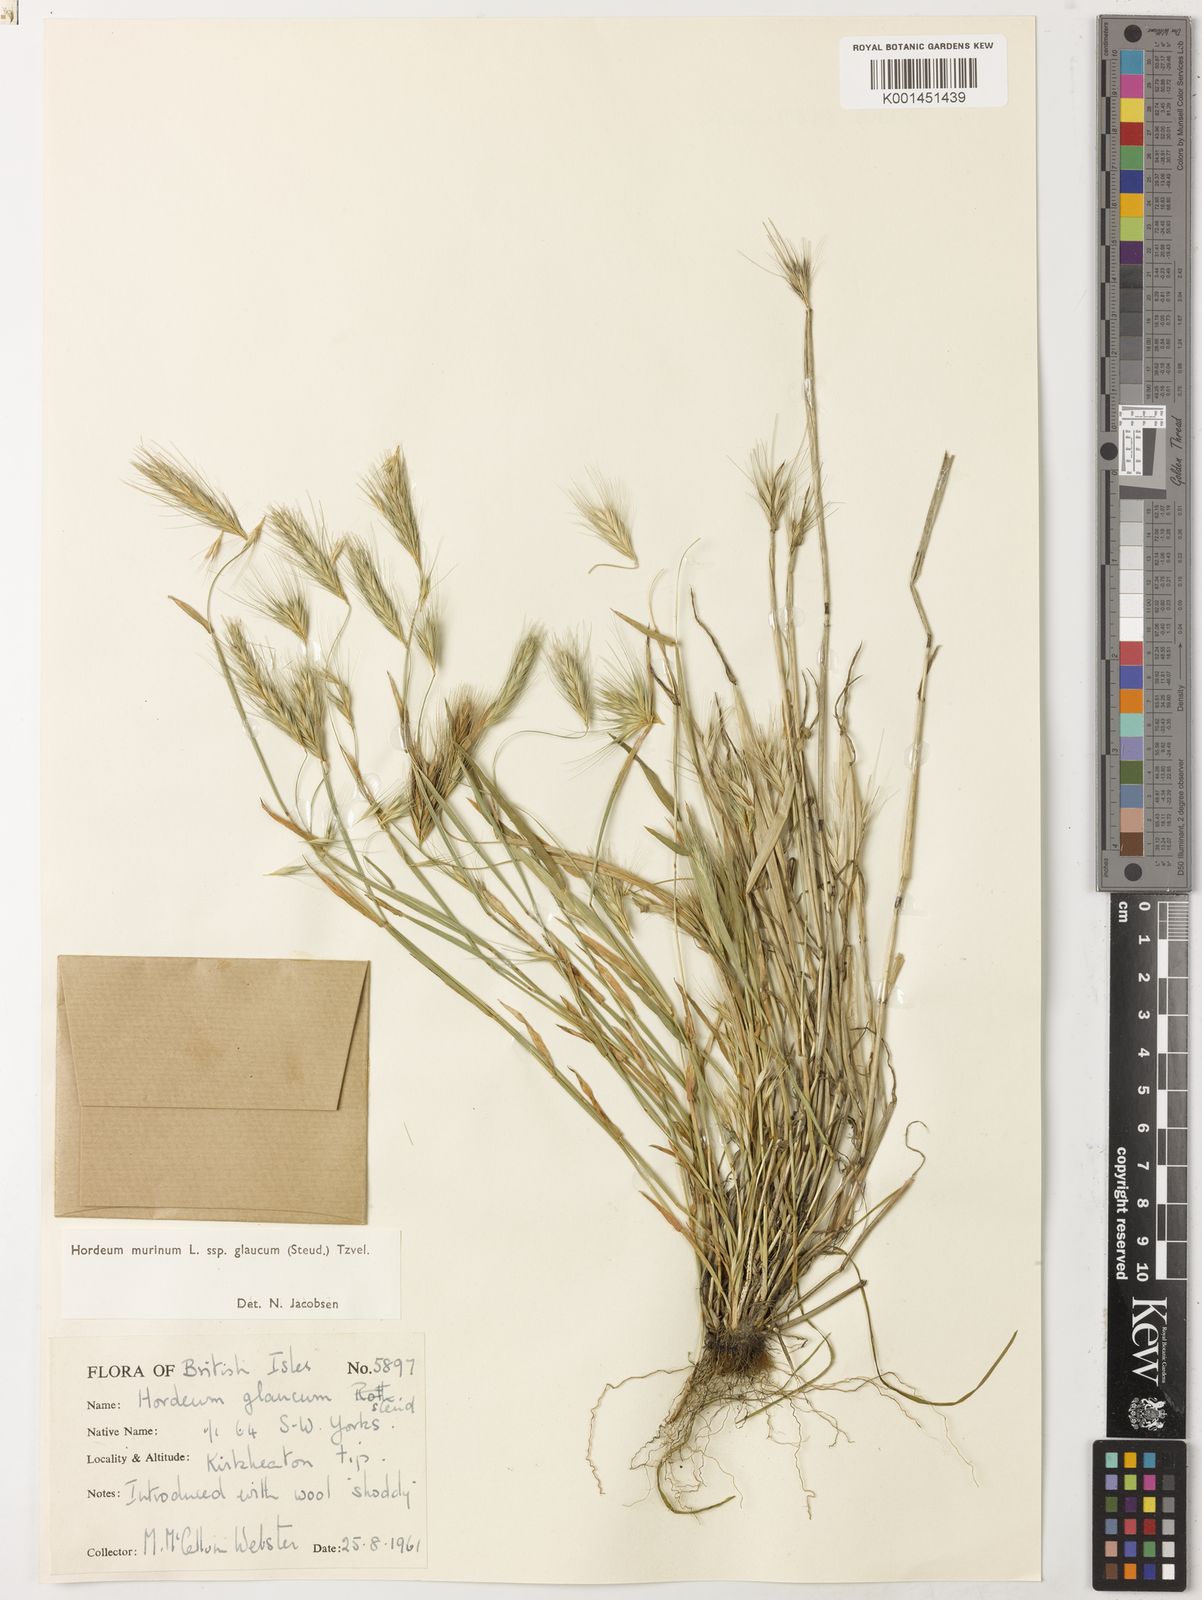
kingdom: Plantae
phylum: Tracheophyta
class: Liliopsida
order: Poales
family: Poaceae
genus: Hordeum
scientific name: Hordeum murinum
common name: Wall barley
